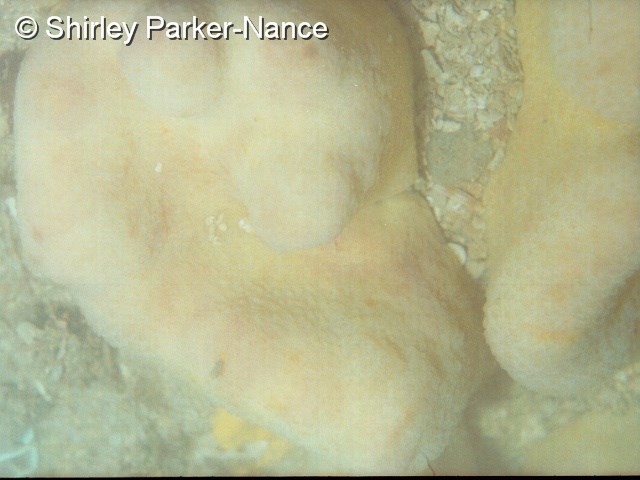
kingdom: Animalia
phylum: Chordata
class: Ascidiacea
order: Aplousobranchia
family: Polycitoridae
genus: Eudistoma
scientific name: Eudistoma
